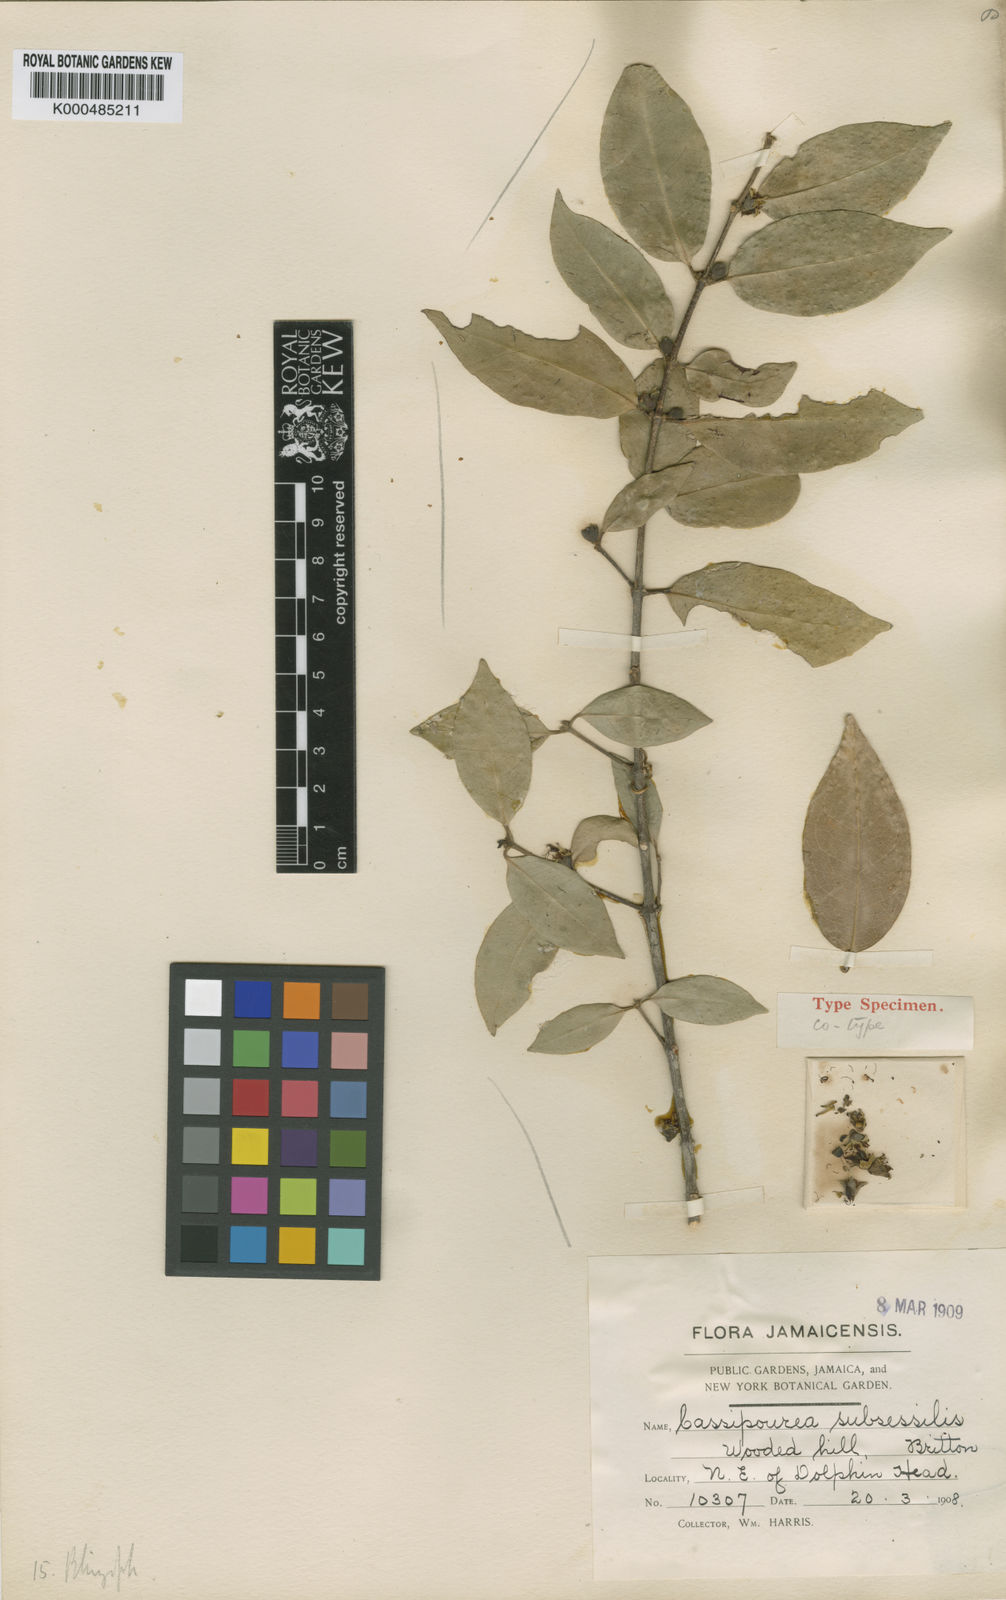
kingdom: Plantae
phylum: Tracheophyta
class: Magnoliopsida
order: Malpighiales
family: Rhizophoraceae
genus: Cassipourea
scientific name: Cassipourea subsessilis
